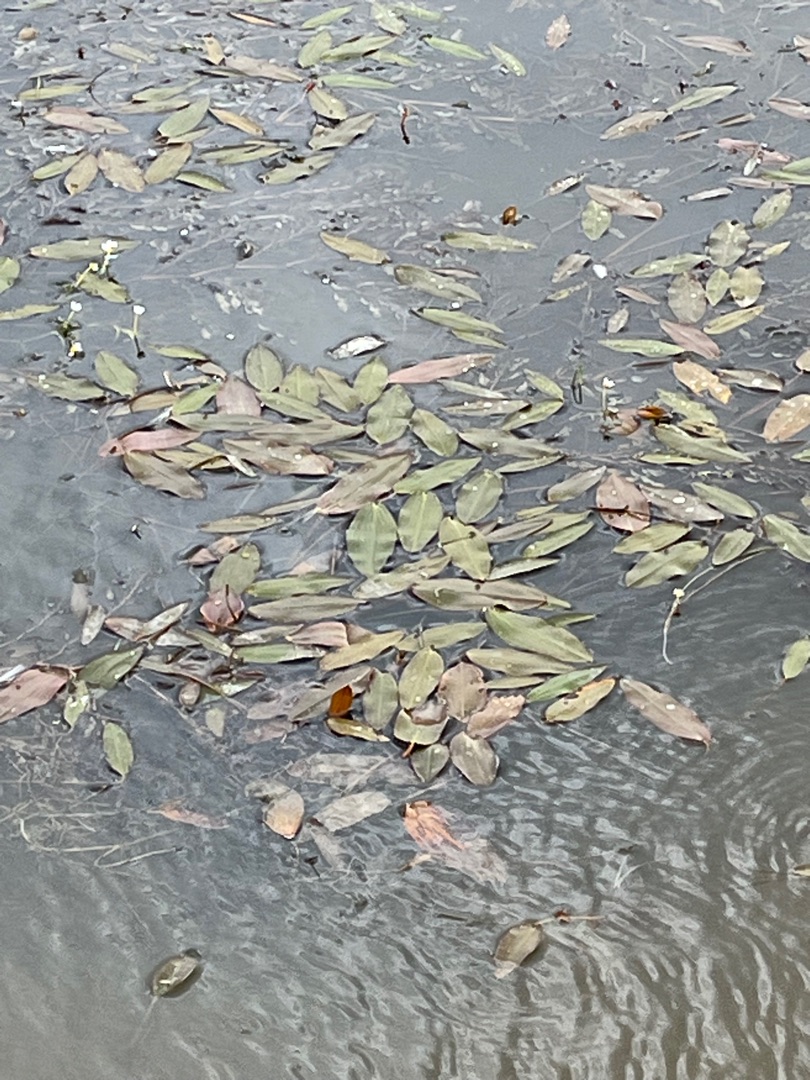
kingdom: Plantae
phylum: Tracheophyta
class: Liliopsida
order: Alismatales
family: Potamogetonaceae
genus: Potamogeton
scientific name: Potamogeton natans
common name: Svømmende vandaks
